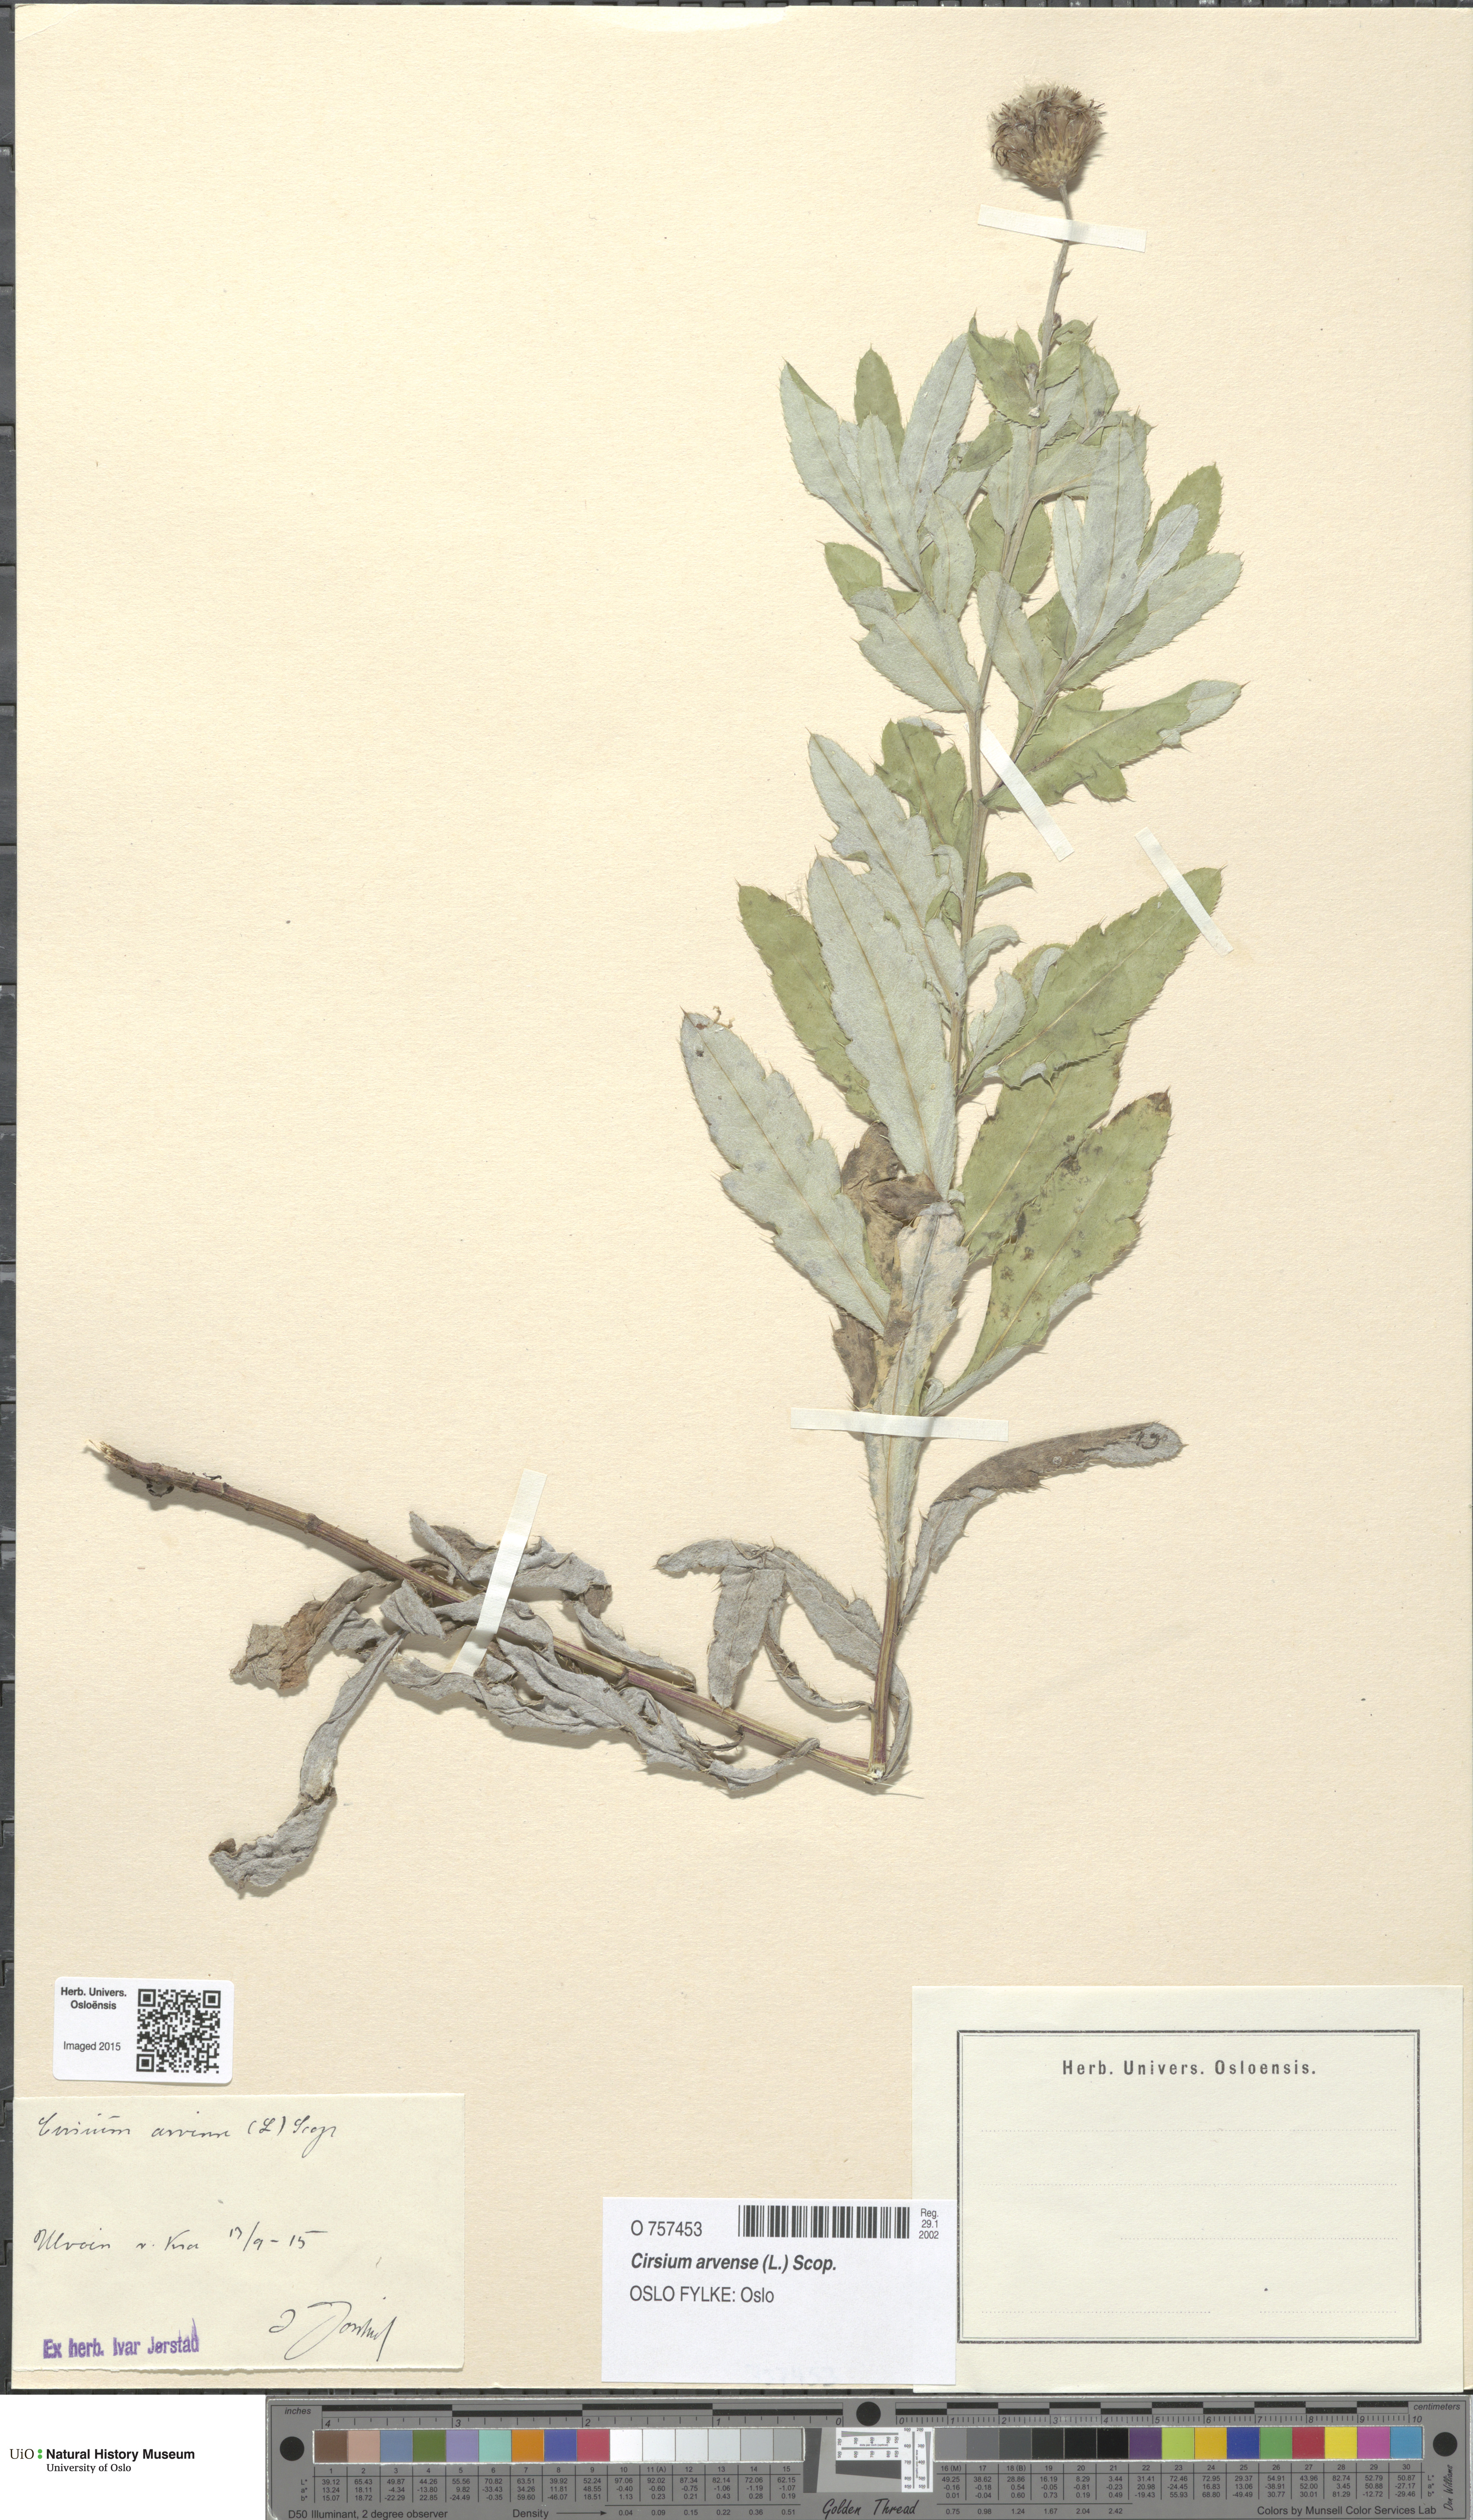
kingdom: Plantae
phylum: Tracheophyta
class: Magnoliopsida
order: Asterales
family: Asteraceae
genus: Cirsium
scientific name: Cirsium arvense
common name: Creeping thistle
